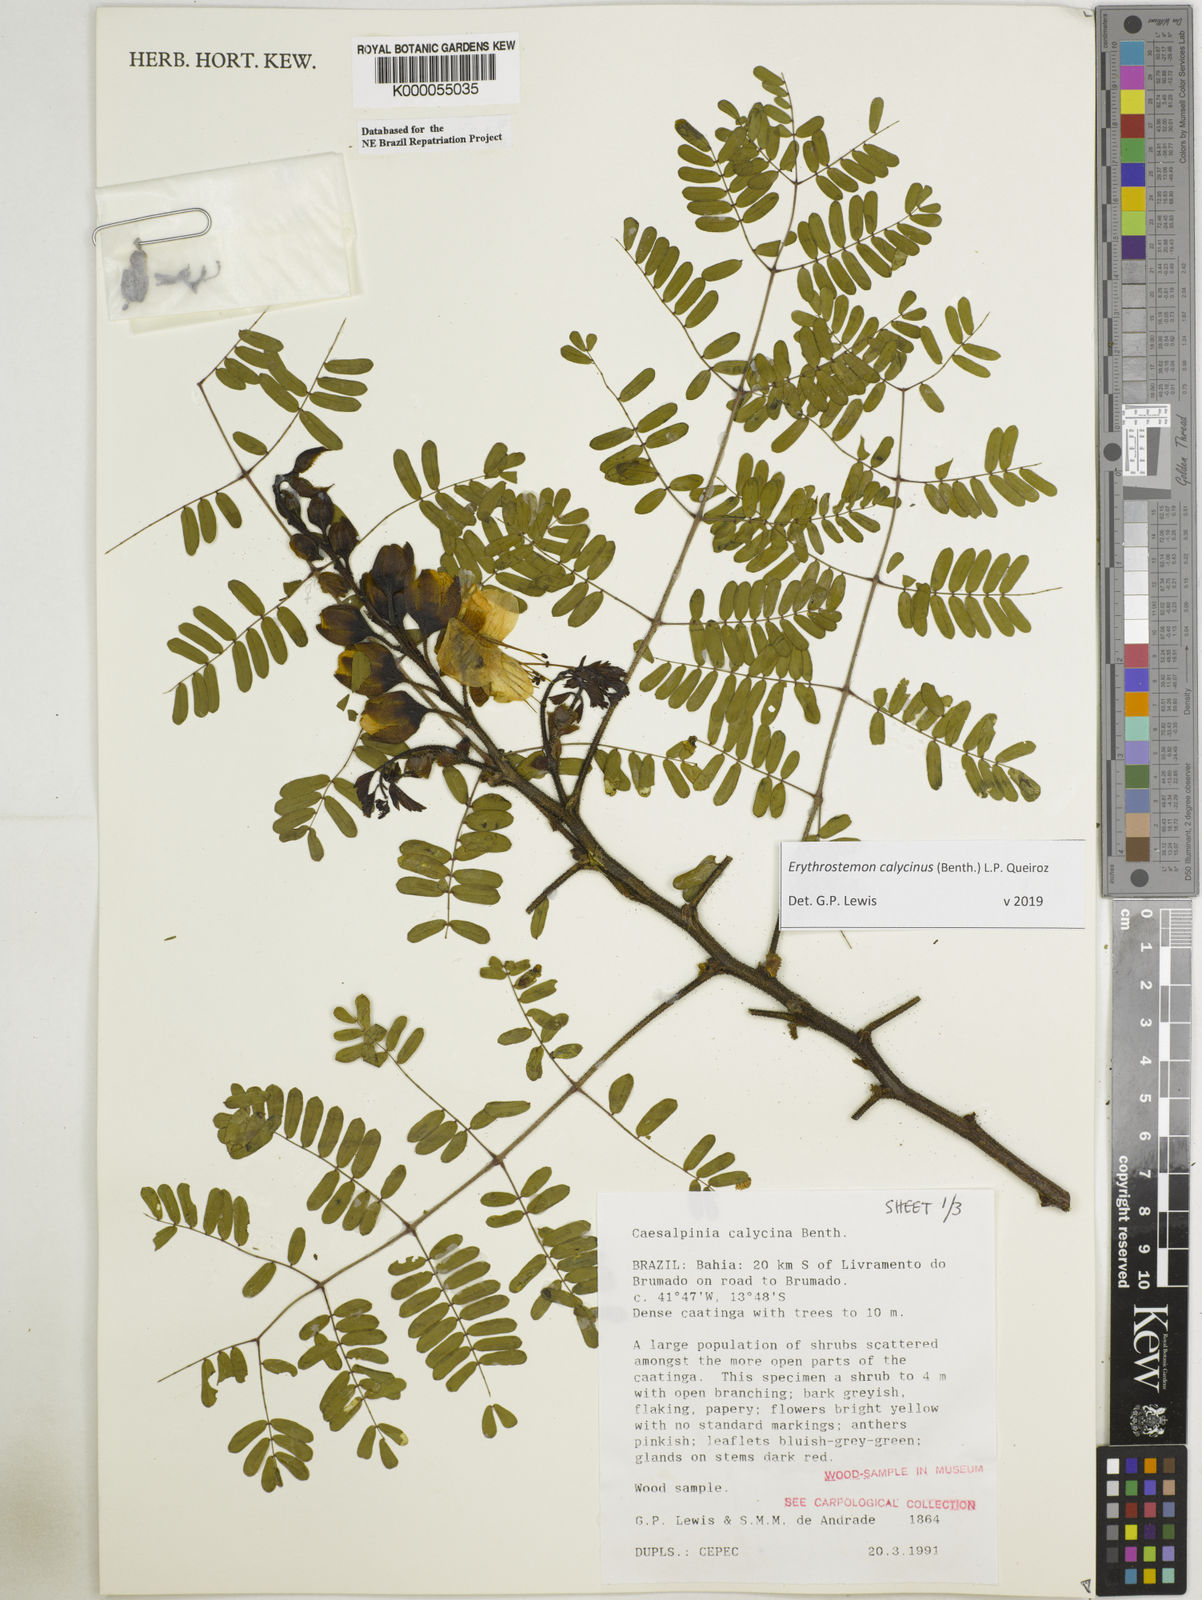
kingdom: Plantae
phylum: Tracheophyta
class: Magnoliopsida
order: Fabales
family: Fabaceae
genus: Erythrostemon
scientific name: Erythrostemon calycinus
